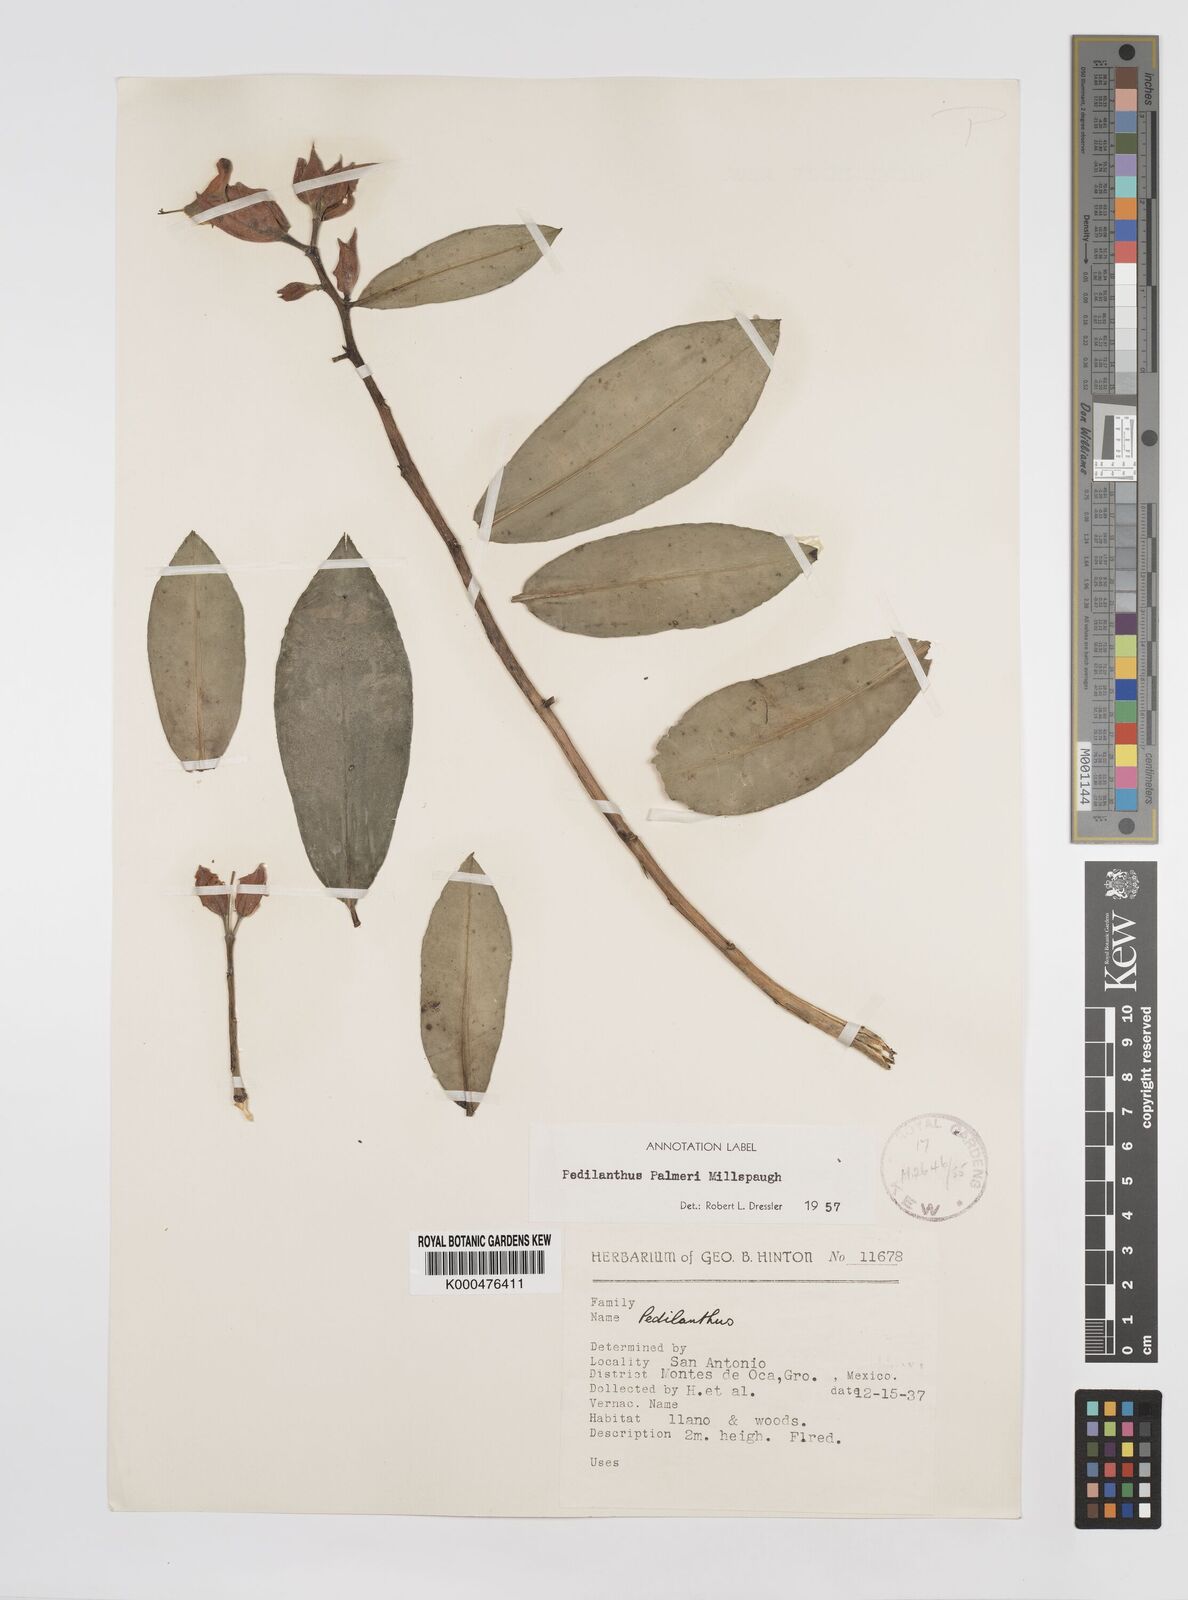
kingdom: Plantae
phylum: Tracheophyta
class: Magnoliopsida
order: Malpighiales
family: Euphorbiaceae
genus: Euphorbia
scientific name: Euphorbia peritropoides
